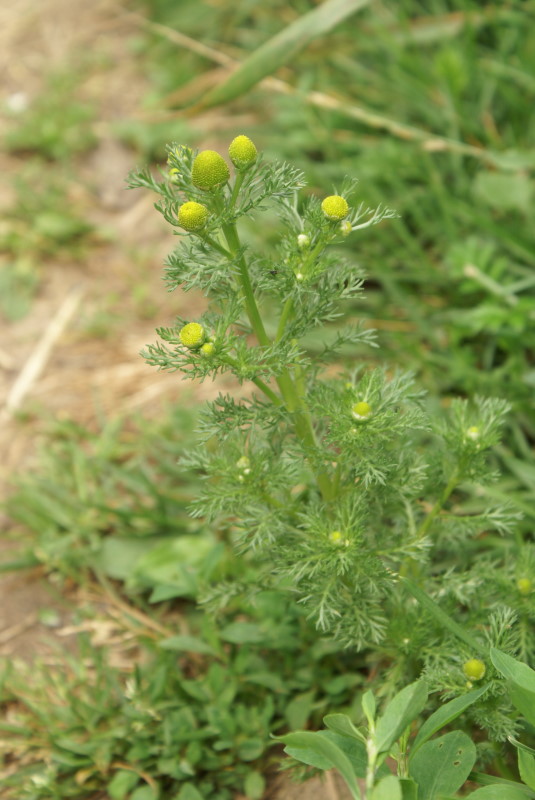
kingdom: Plantae
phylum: Tracheophyta
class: Magnoliopsida
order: Asterales
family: Asteraceae
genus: Matricaria
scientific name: Matricaria discoidea
